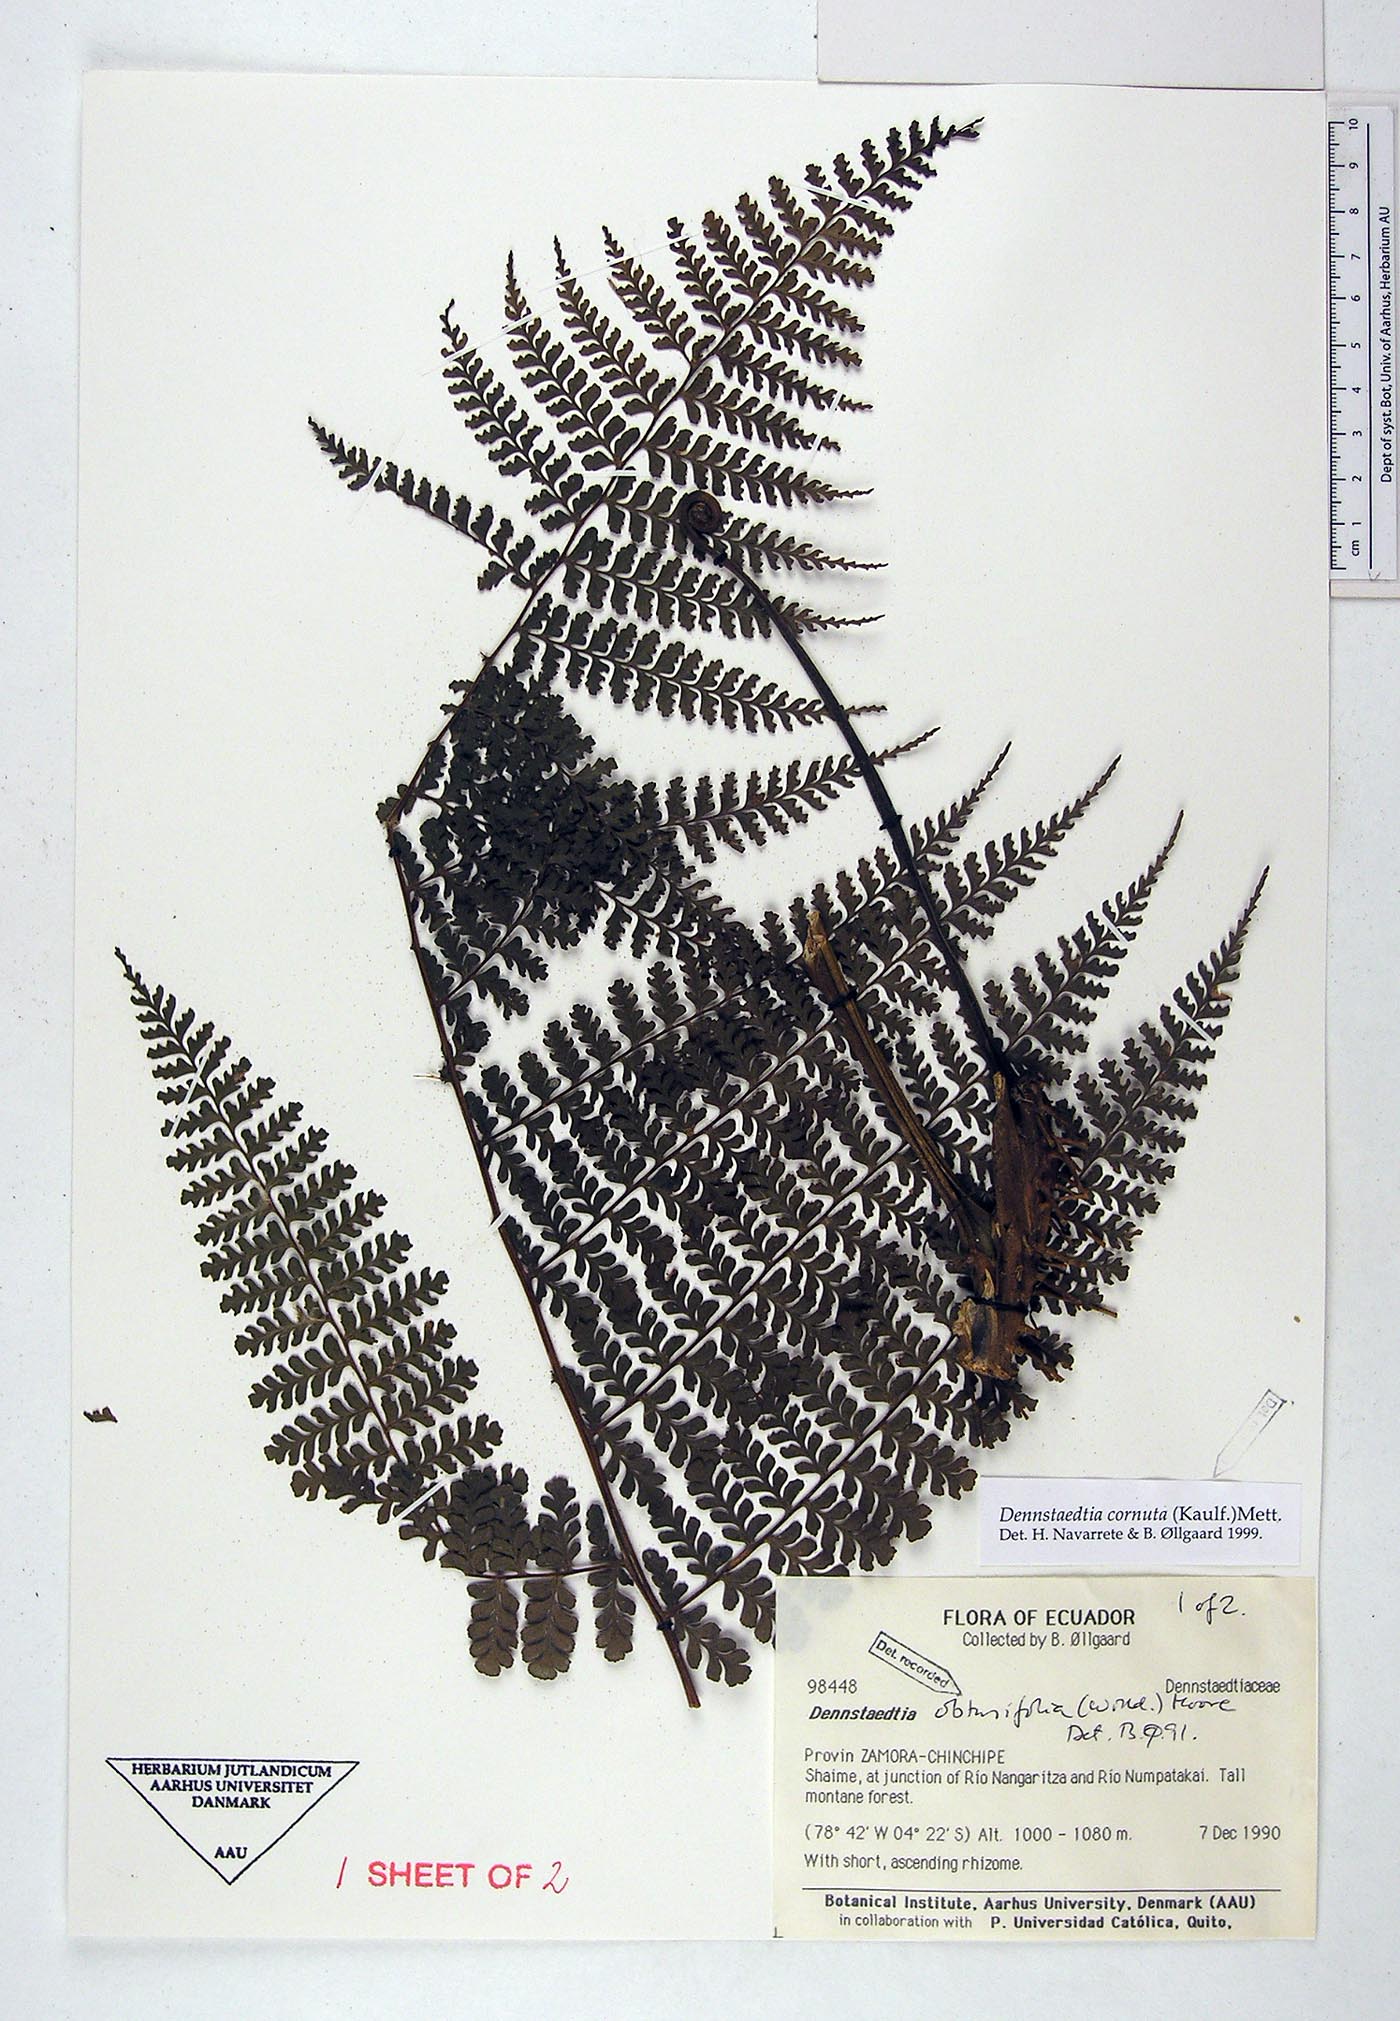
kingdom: Plantae
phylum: Tracheophyta
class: Polypodiopsida
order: Polypodiales
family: Dennstaedtiaceae
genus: Dennstaedtia
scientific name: Dennstaedtia cornuta
